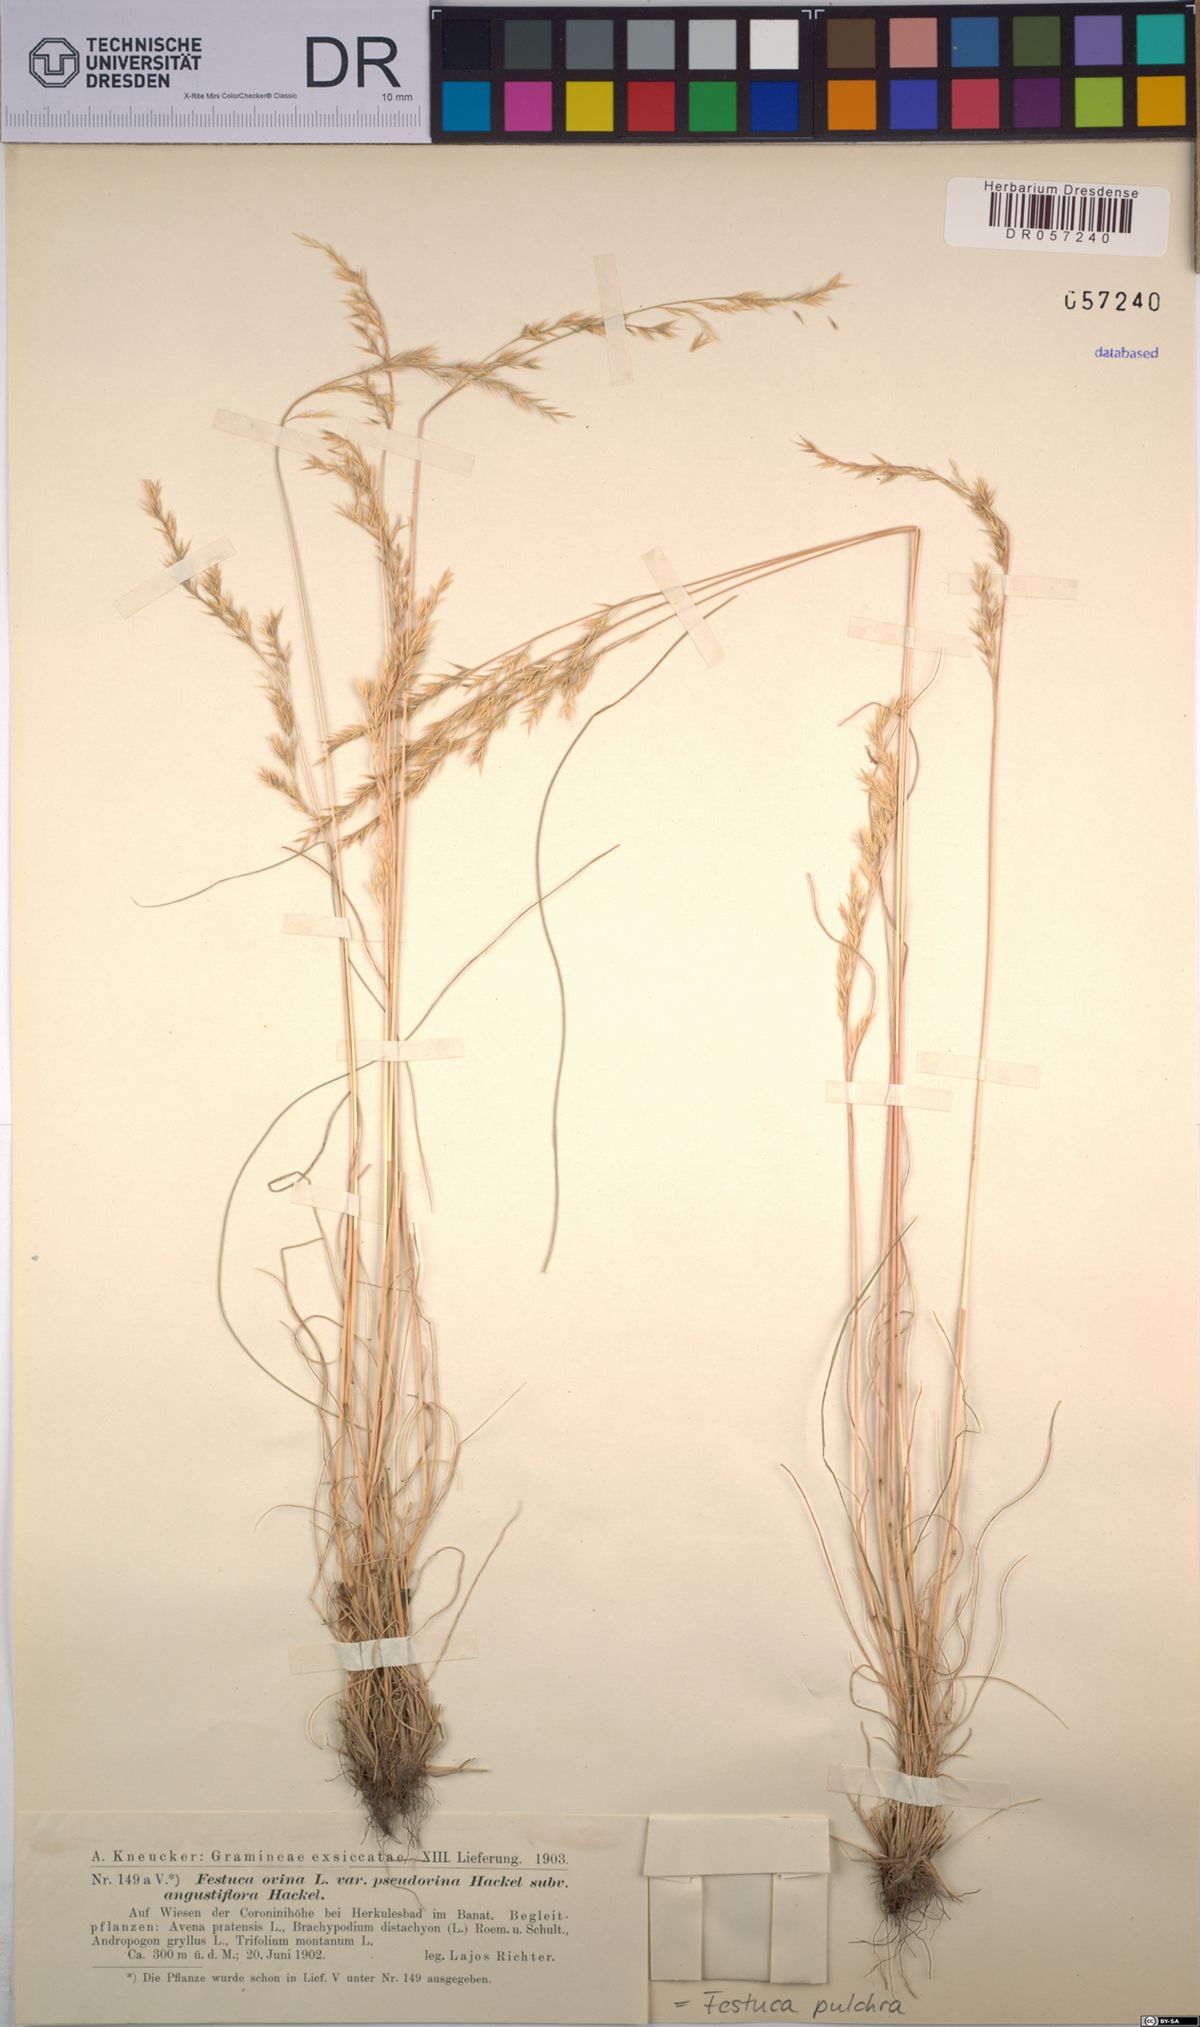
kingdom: Plantae
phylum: Tracheophyta
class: Liliopsida
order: Poales
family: Poaceae
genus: Festuca
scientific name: Festuca pulchra
